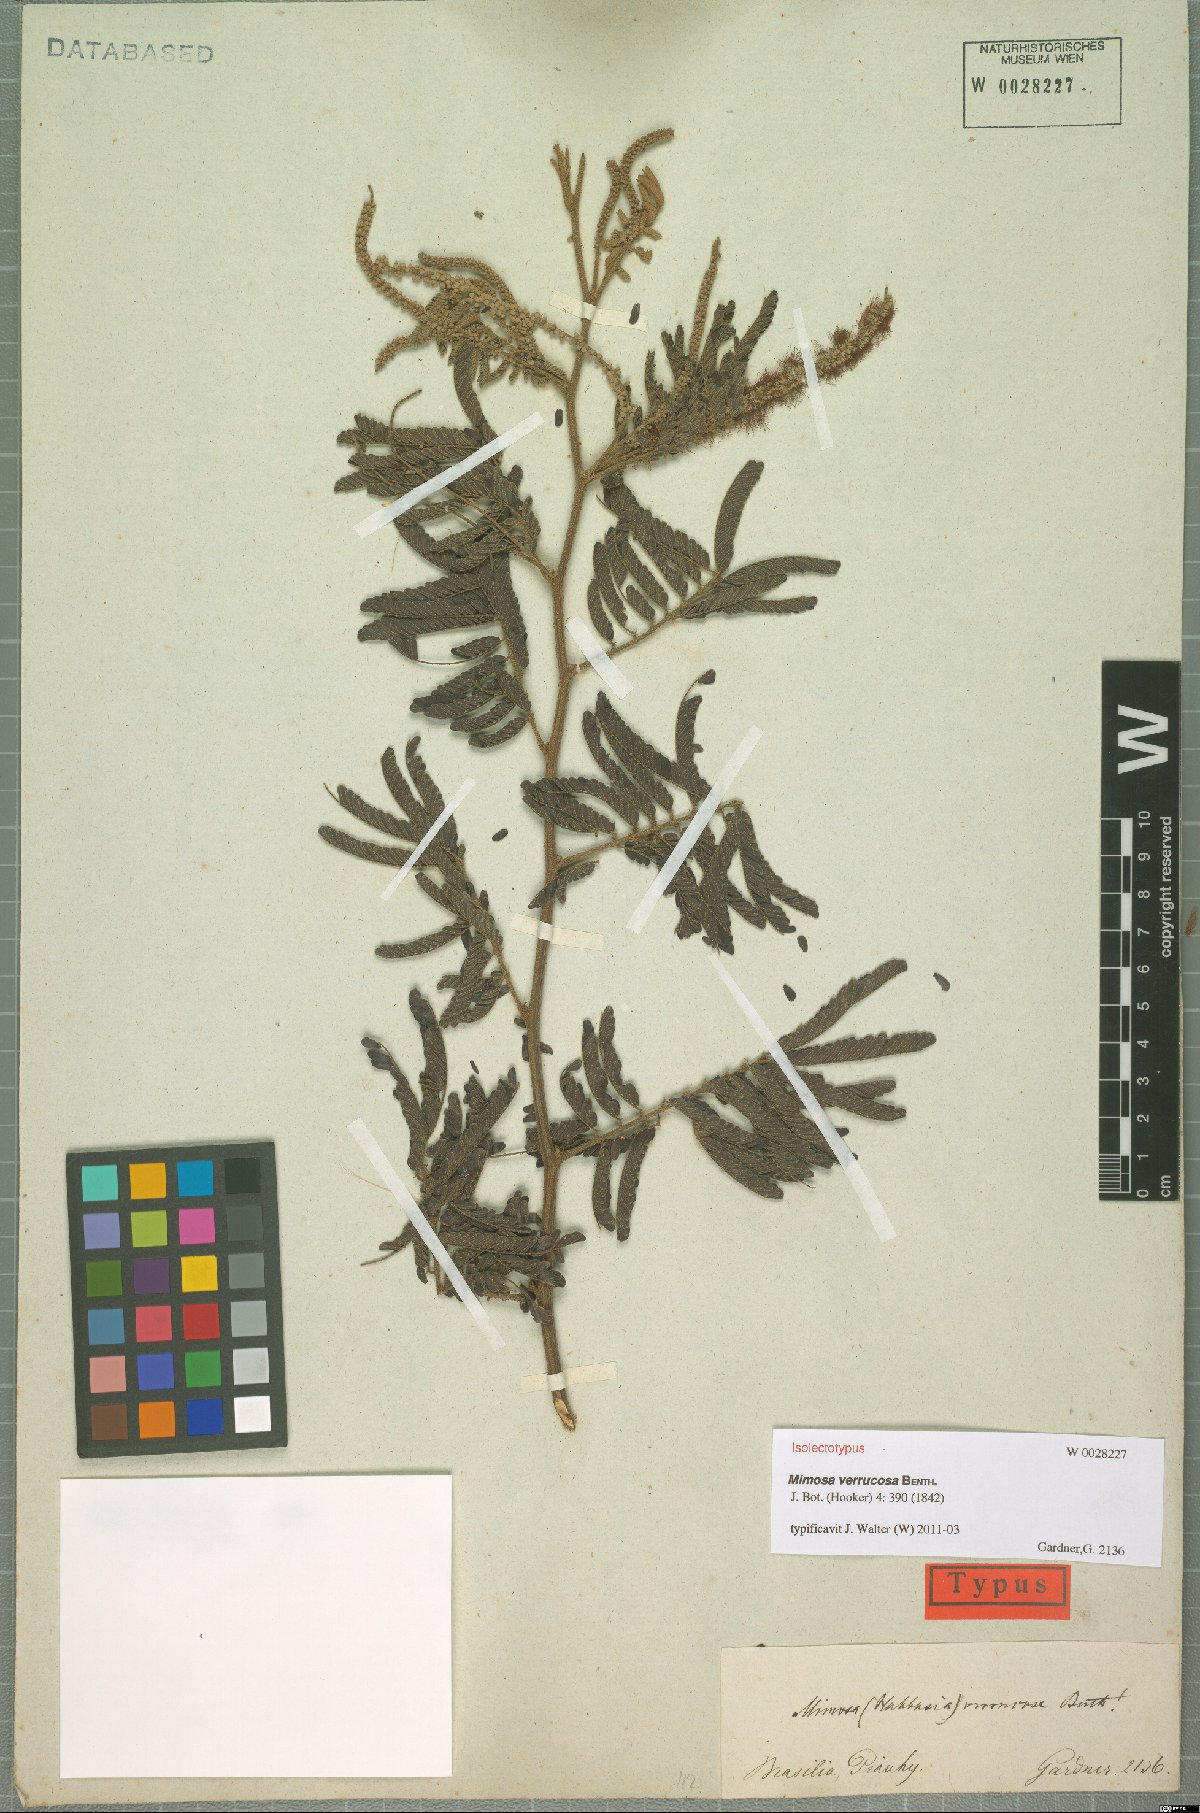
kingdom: Plantae
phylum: Tracheophyta
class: Magnoliopsida
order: Fabales
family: Fabaceae
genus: Mimosa
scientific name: Mimosa verrucosa
